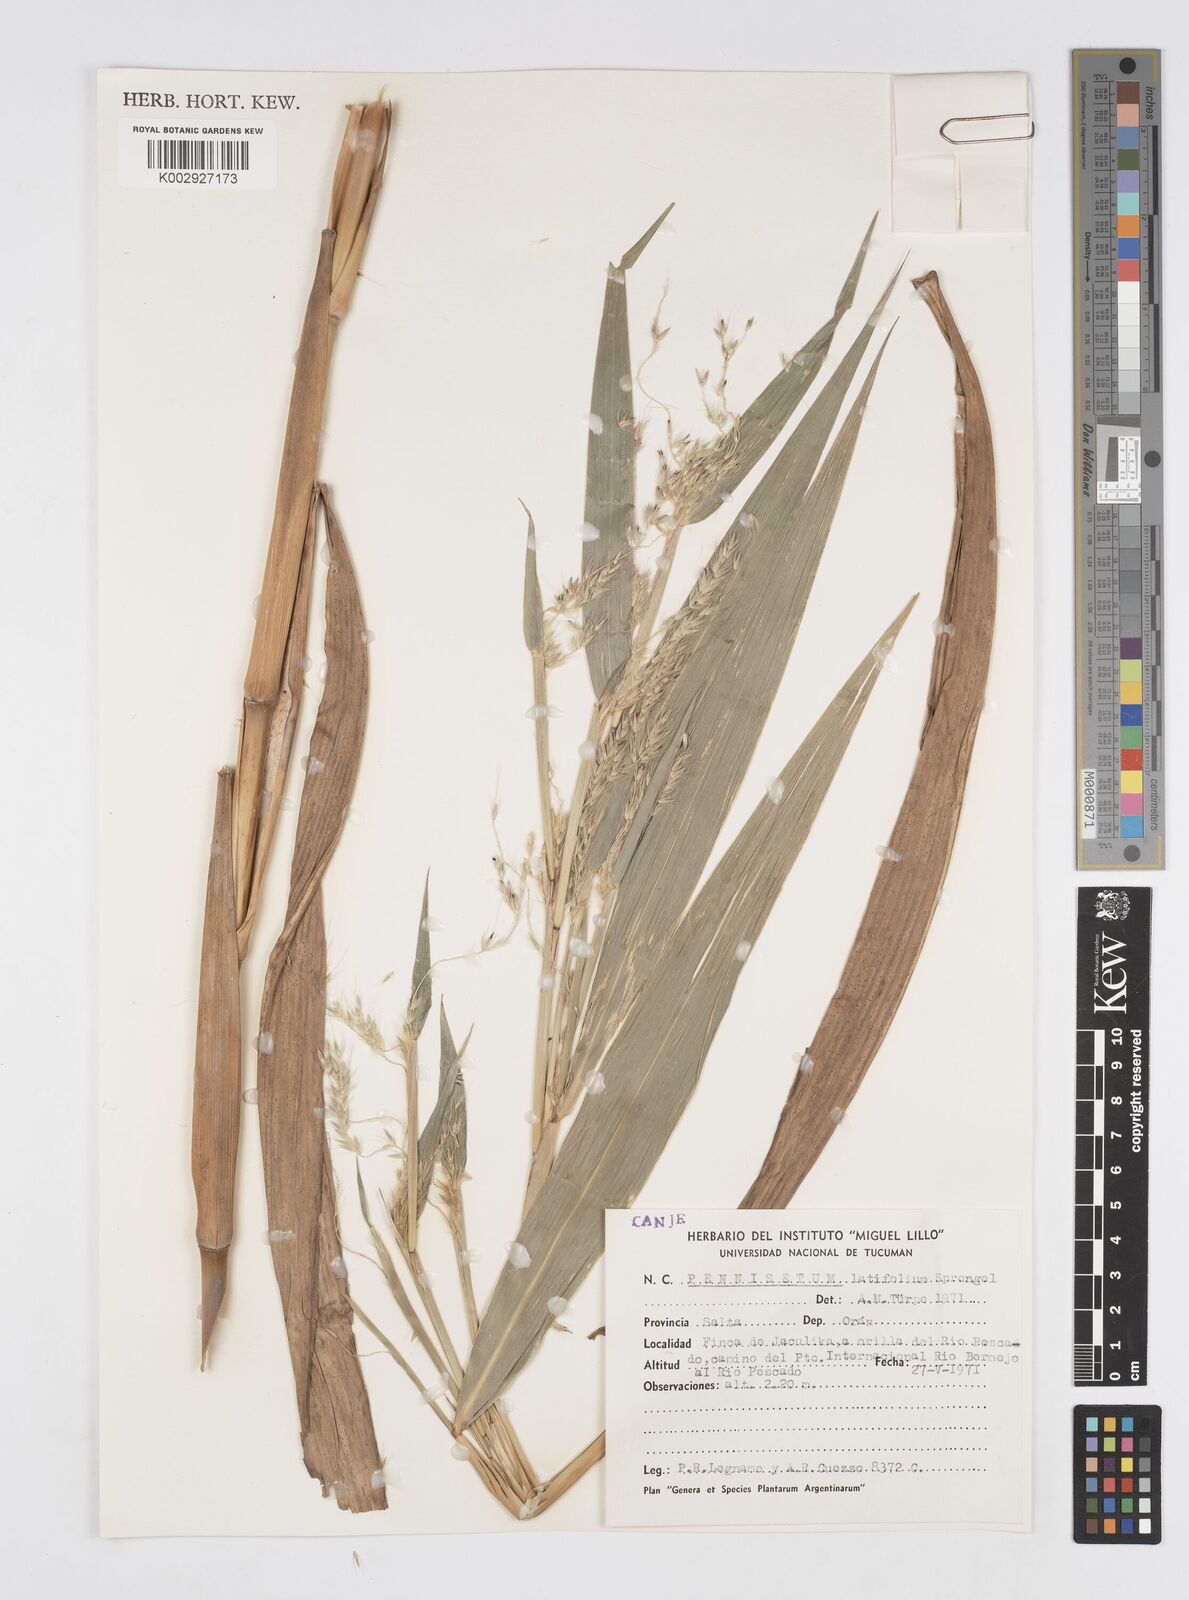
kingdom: Plantae
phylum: Tracheophyta
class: Liliopsida
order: Poales
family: Poaceae
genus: Cenchrus
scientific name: Cenchrus latifolius
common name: Sandbur
